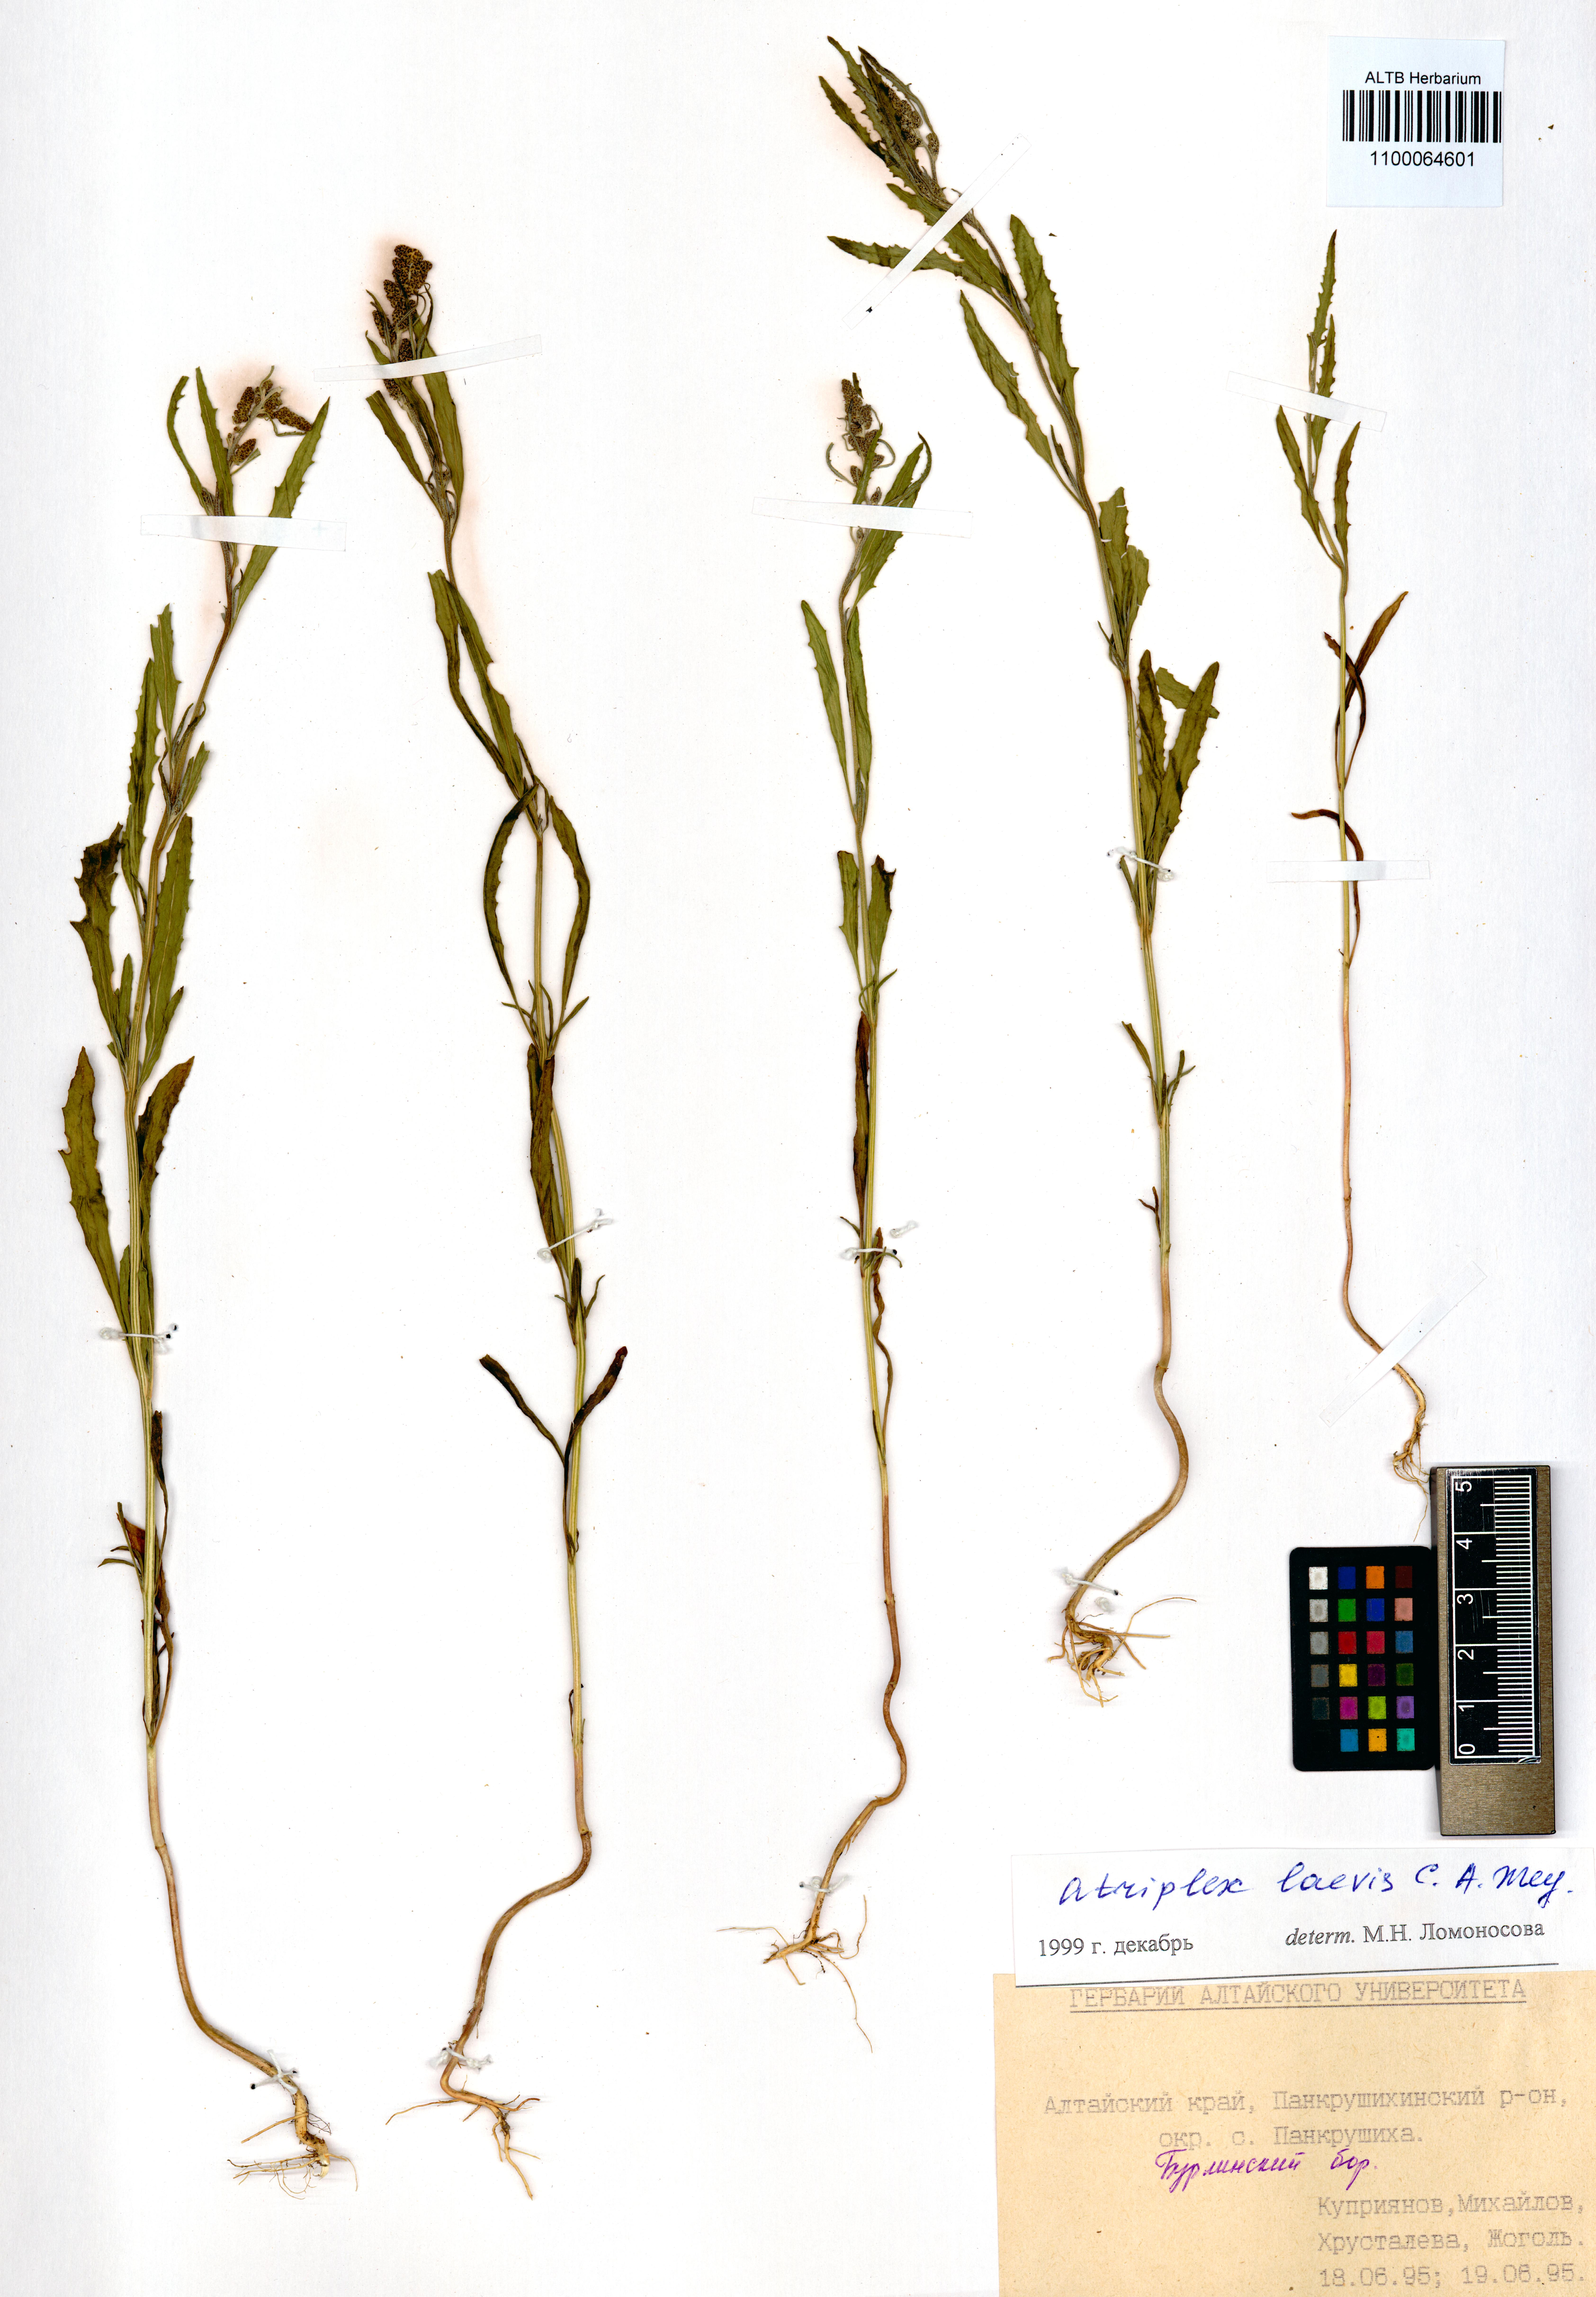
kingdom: Plantae
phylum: Tracheophyta
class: Magnoliopsida
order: Caryophyllales
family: Amaranthaceae
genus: Atriplex
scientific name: Atriplex laevis
